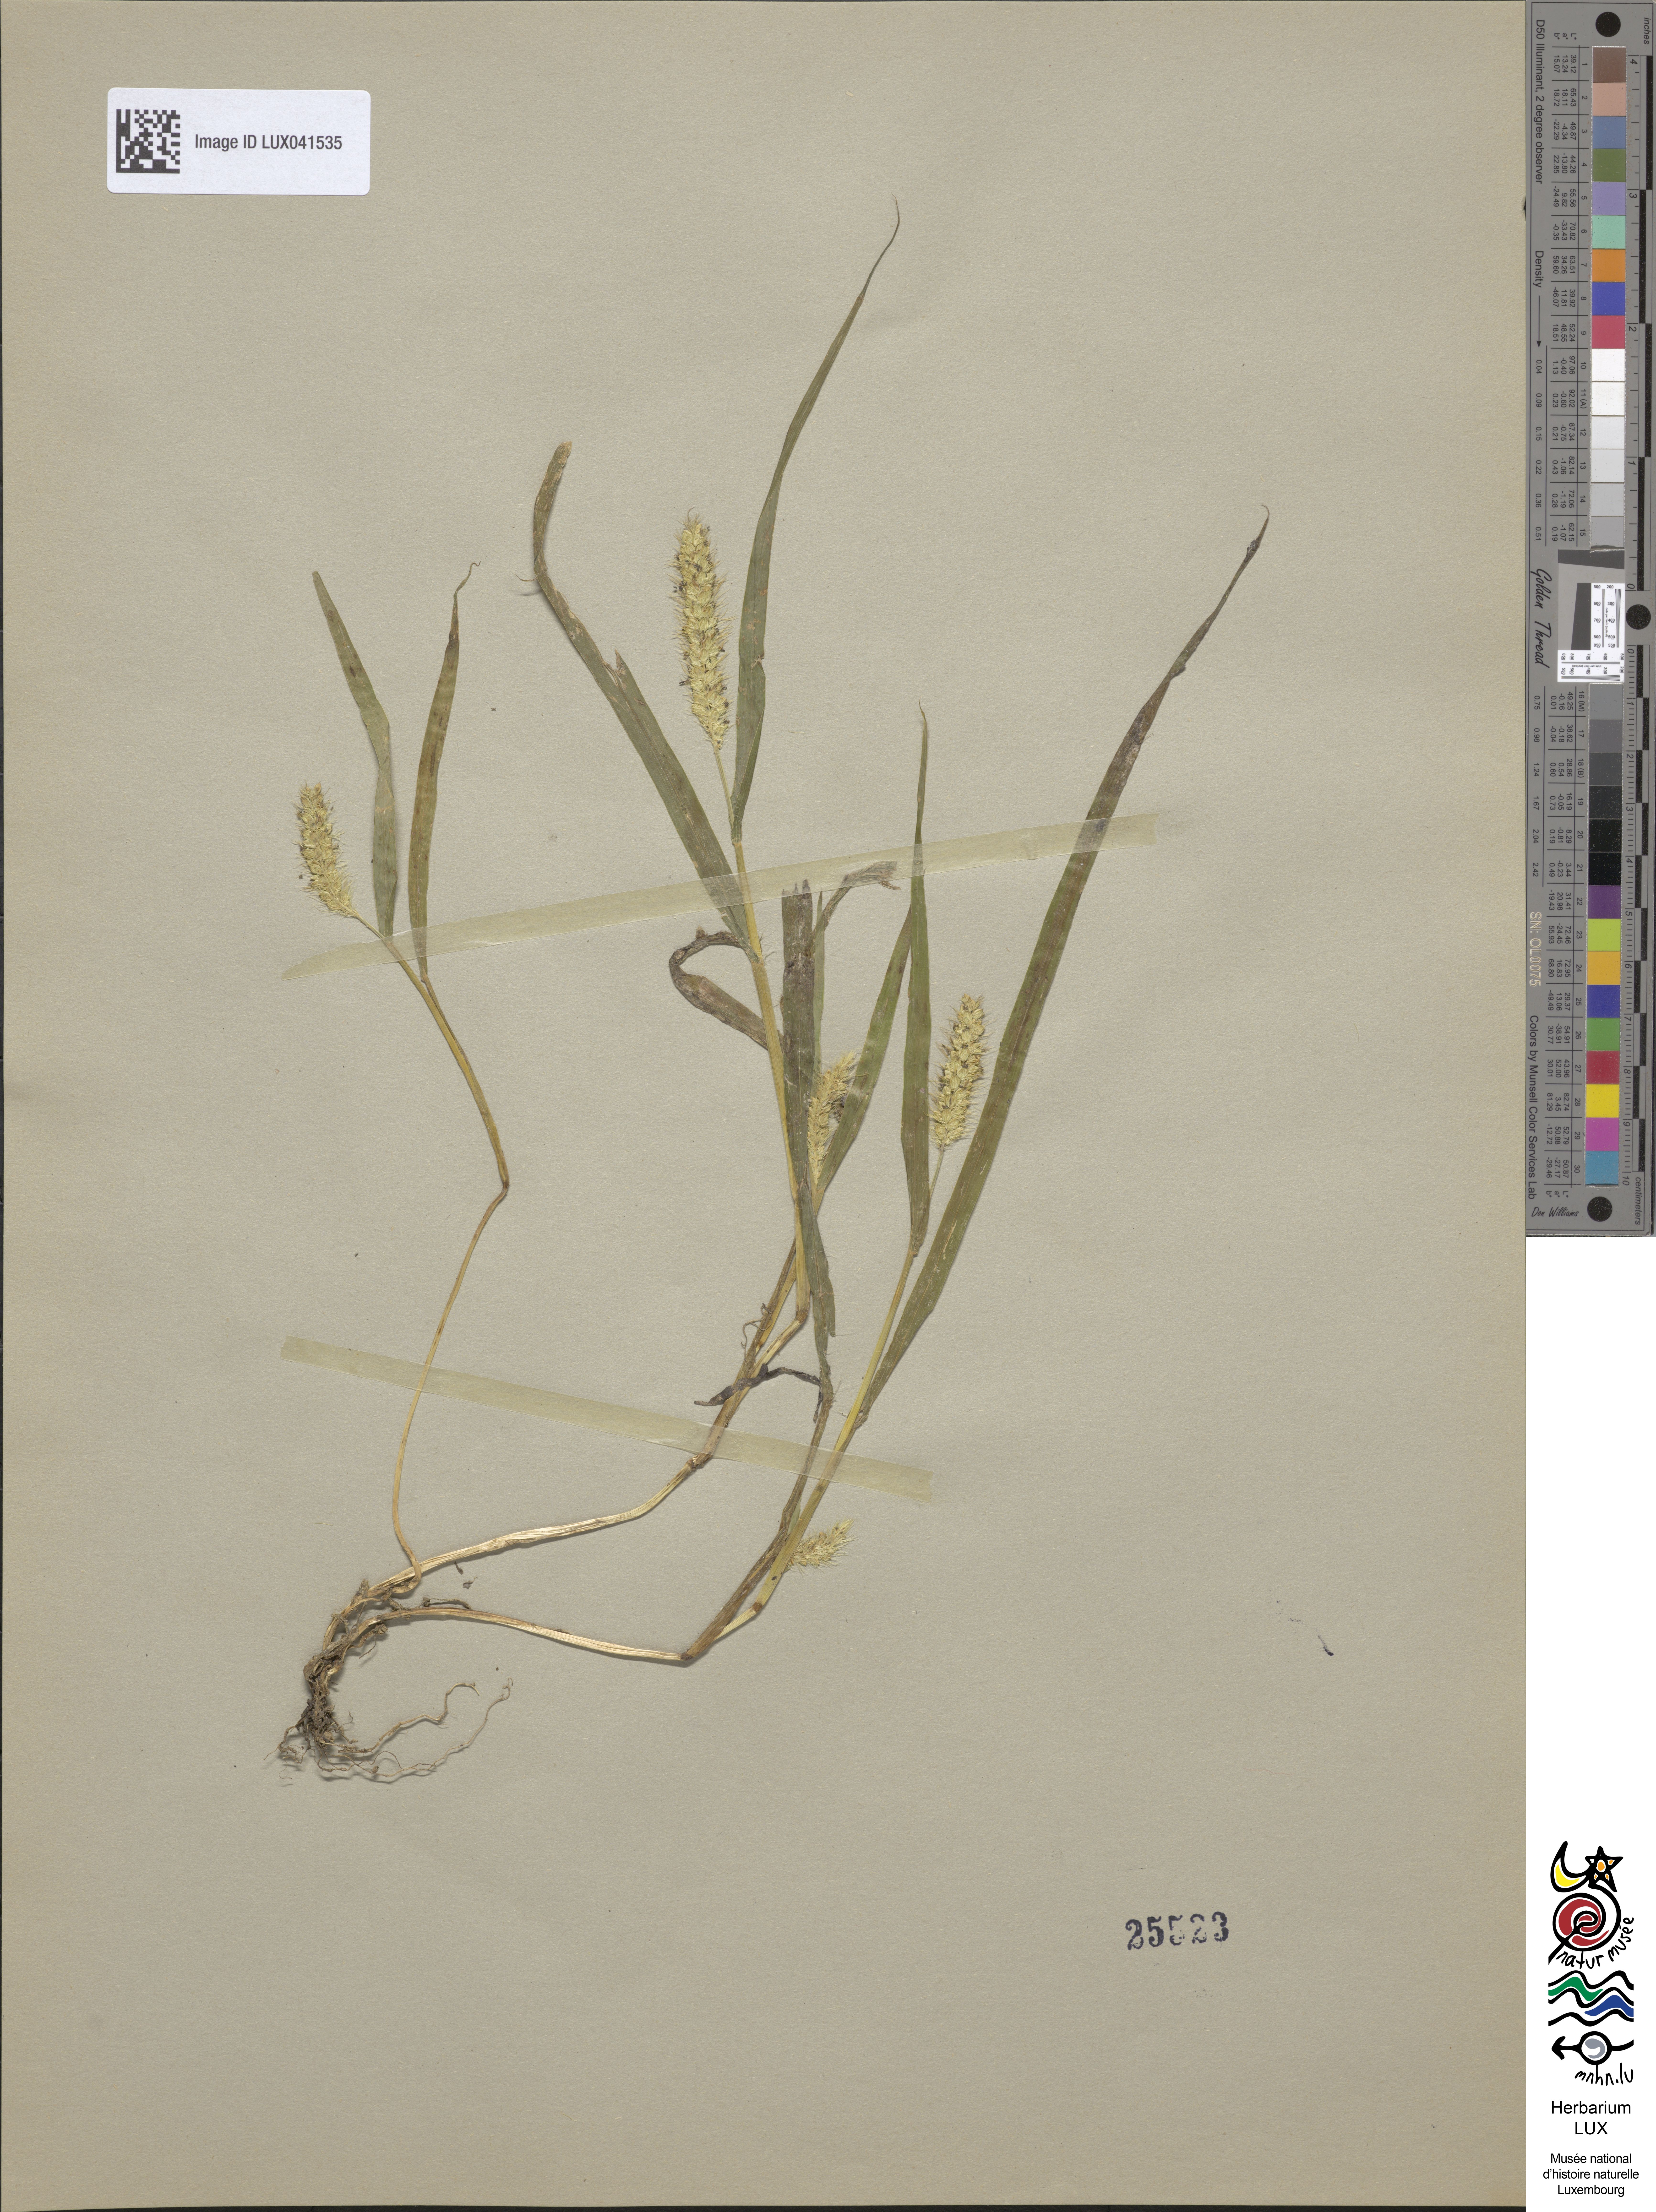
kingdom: Plantae
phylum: Tracheophyta
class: Liliopsida
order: Poales
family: Poaceae
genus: Cenchrus
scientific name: Cenchrus americanus
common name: Pearl millet
